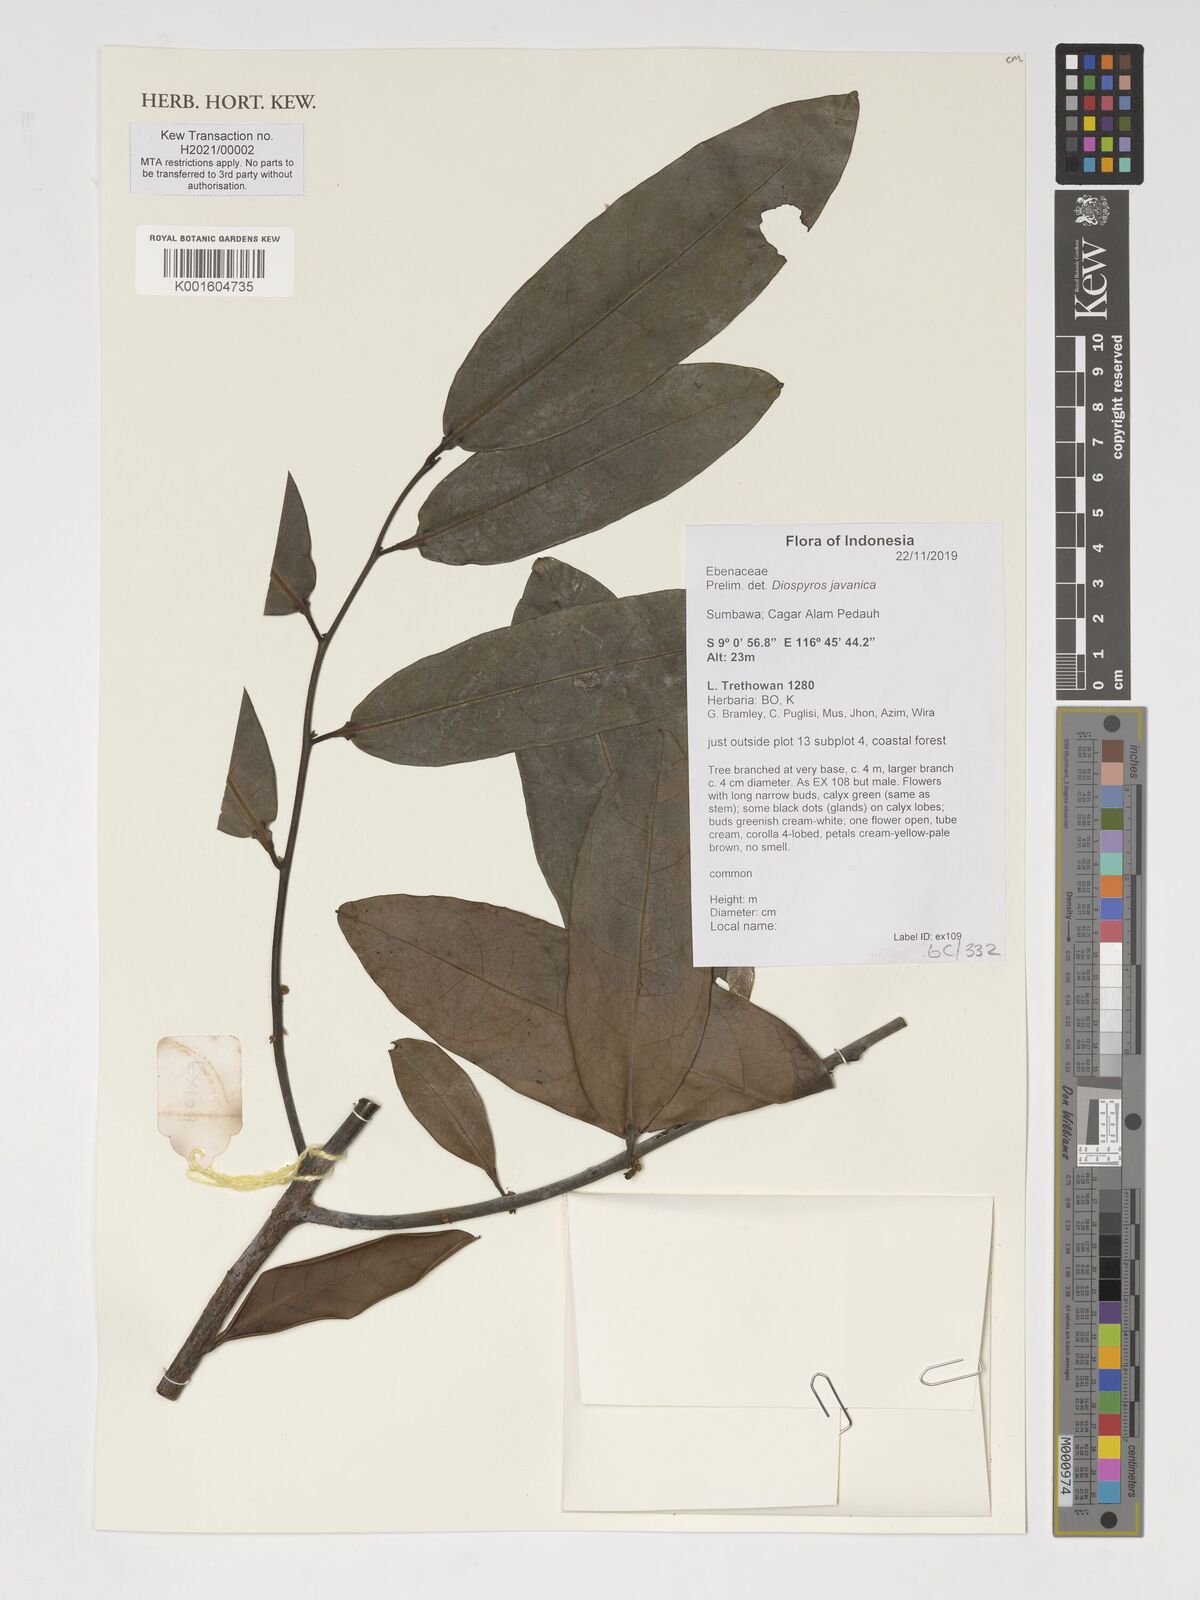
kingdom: Plantae
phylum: Tracheophyta
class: Magnoliopsida
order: Ericales
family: Ebenaceae
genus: Diospyros
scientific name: Diospyros javanica
